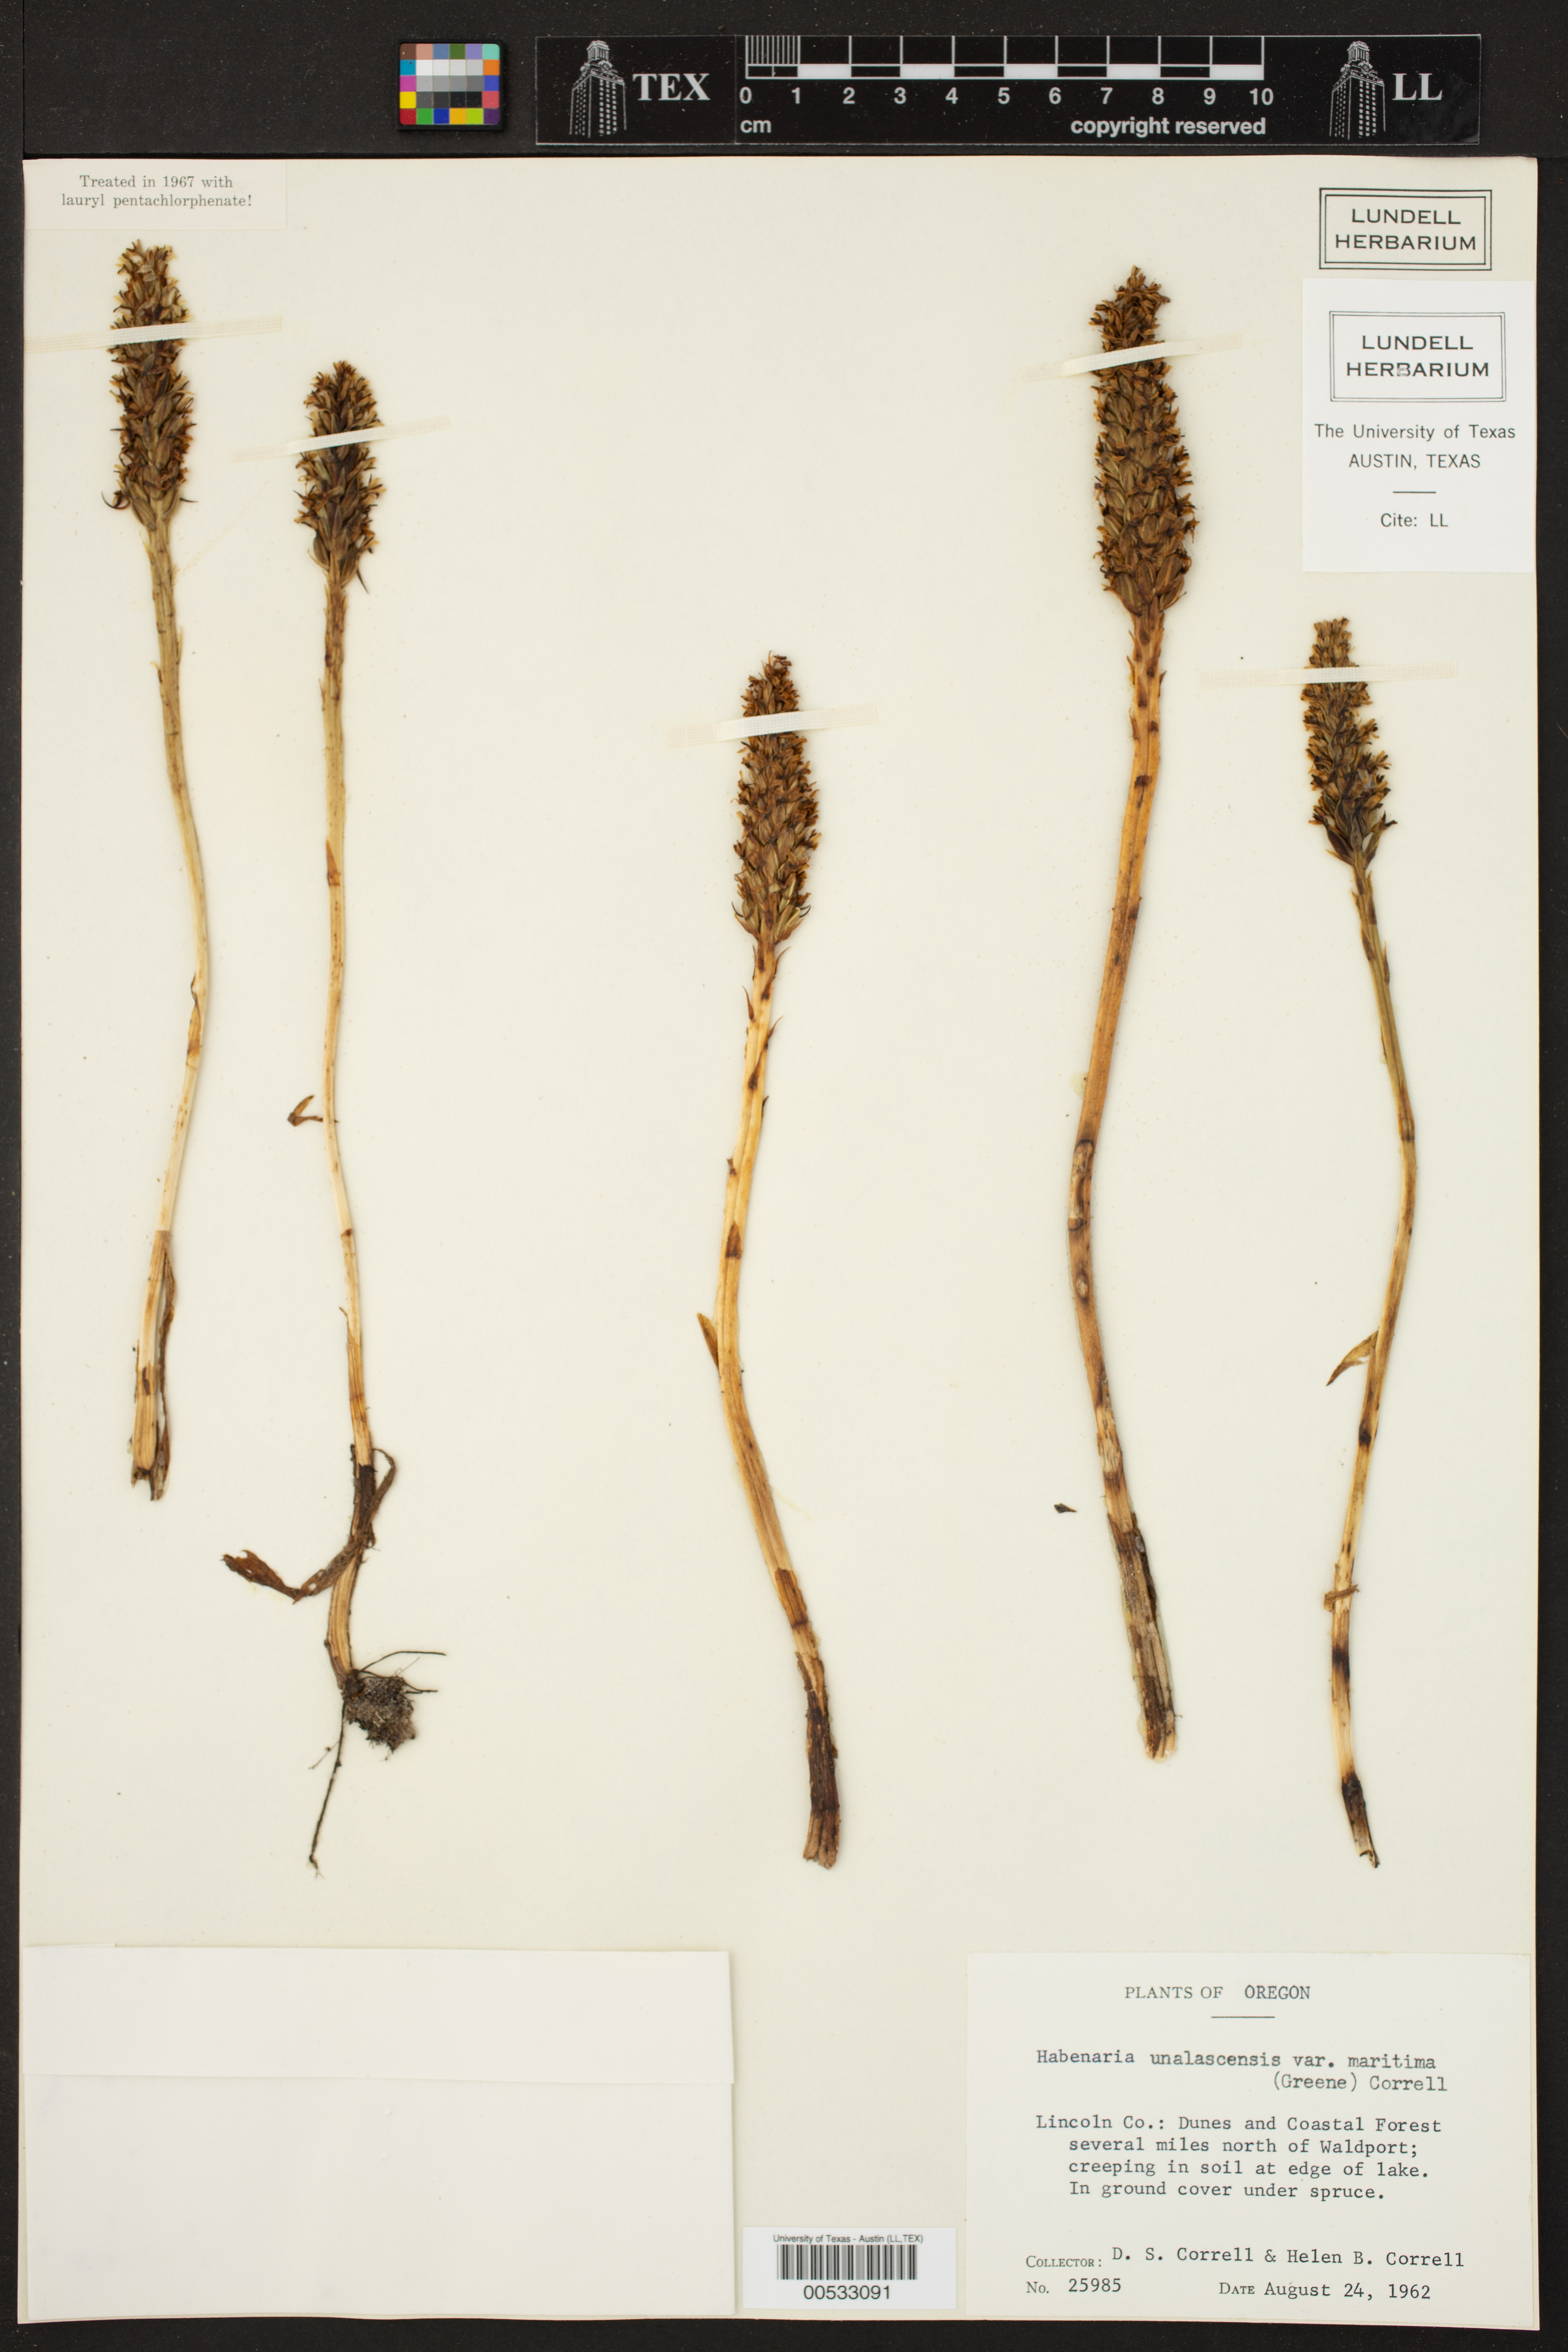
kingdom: Plantae
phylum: Tracheophyta
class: Liliopsida
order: Asparagales
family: Orchidaceae
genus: Platanthera
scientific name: Platanthera elegans
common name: Coast piperia
